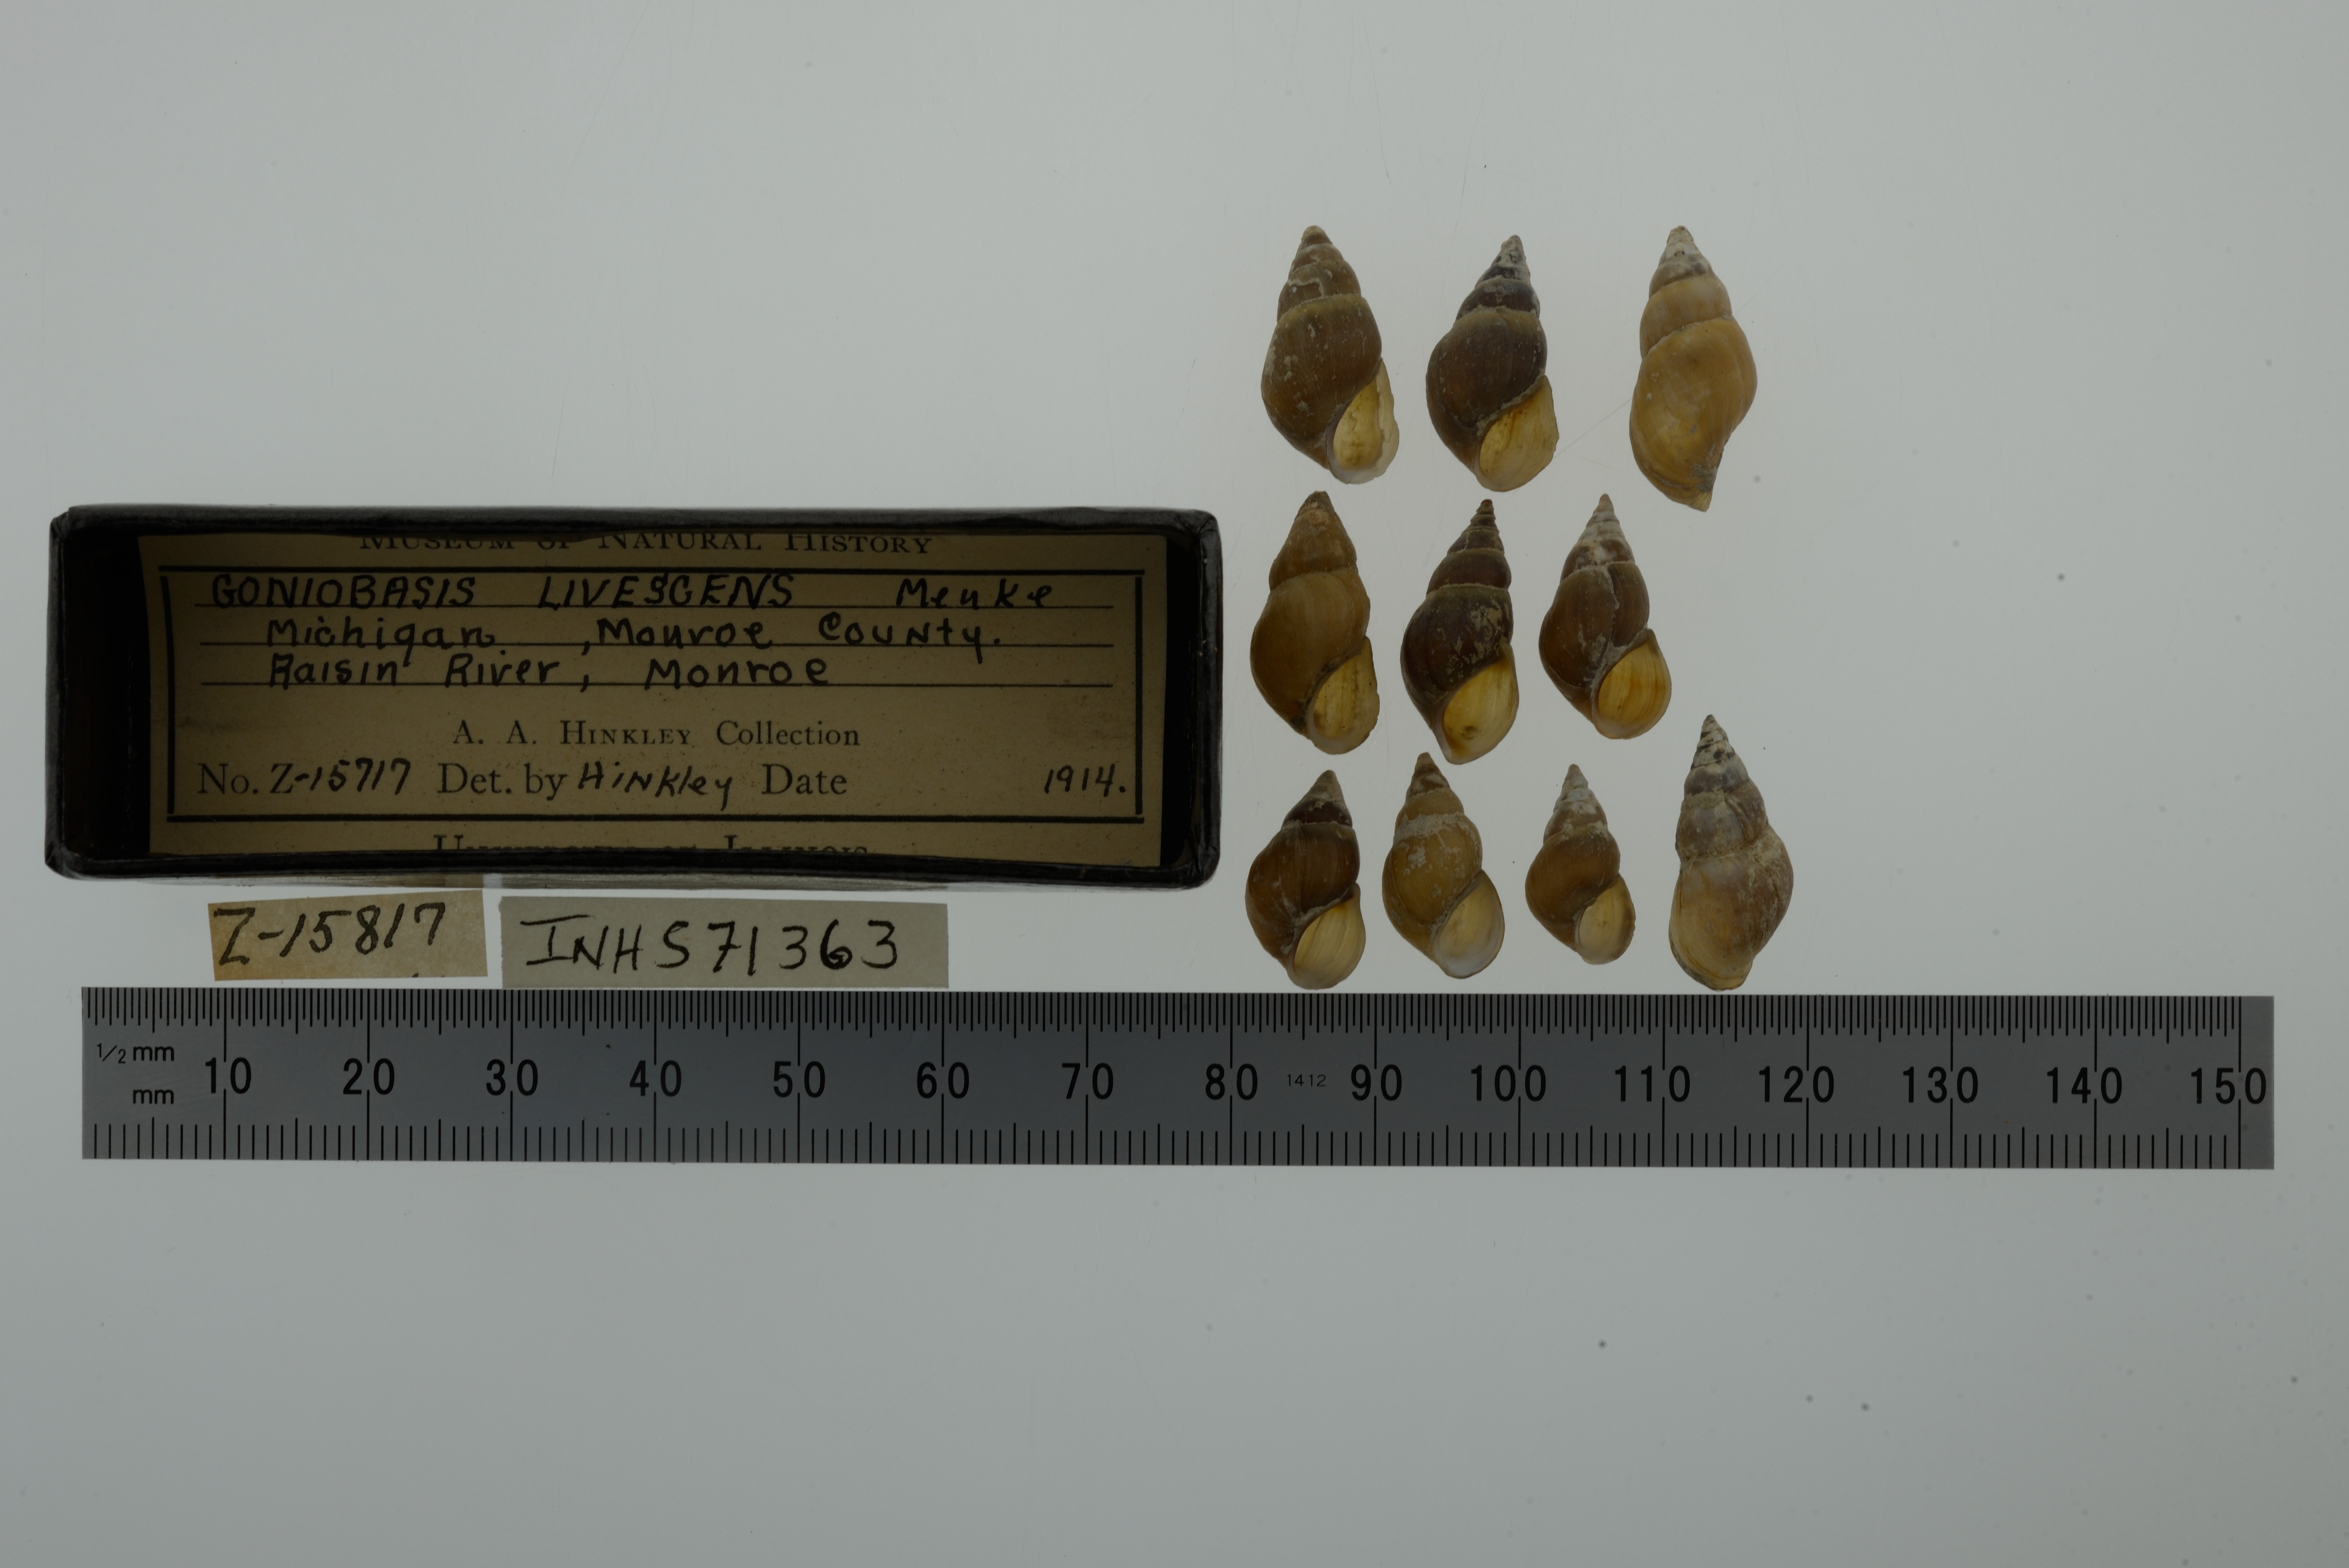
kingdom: Animalia
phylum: Mollusca
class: Gastropoda
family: Pleuroceridae
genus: Elimia
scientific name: Elimia livescens
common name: Liver elimia
